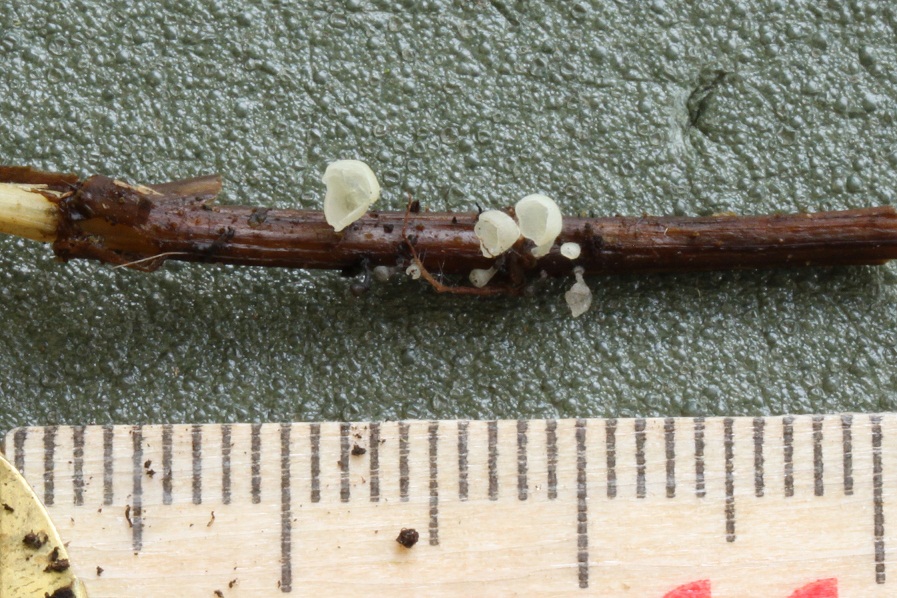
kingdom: Fungi
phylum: Basidiomycota
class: Agaricomycetes
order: Agaricales
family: Marasmiaceae
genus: Calyptella
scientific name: Calyptella capula
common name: hvidlig nældehue
